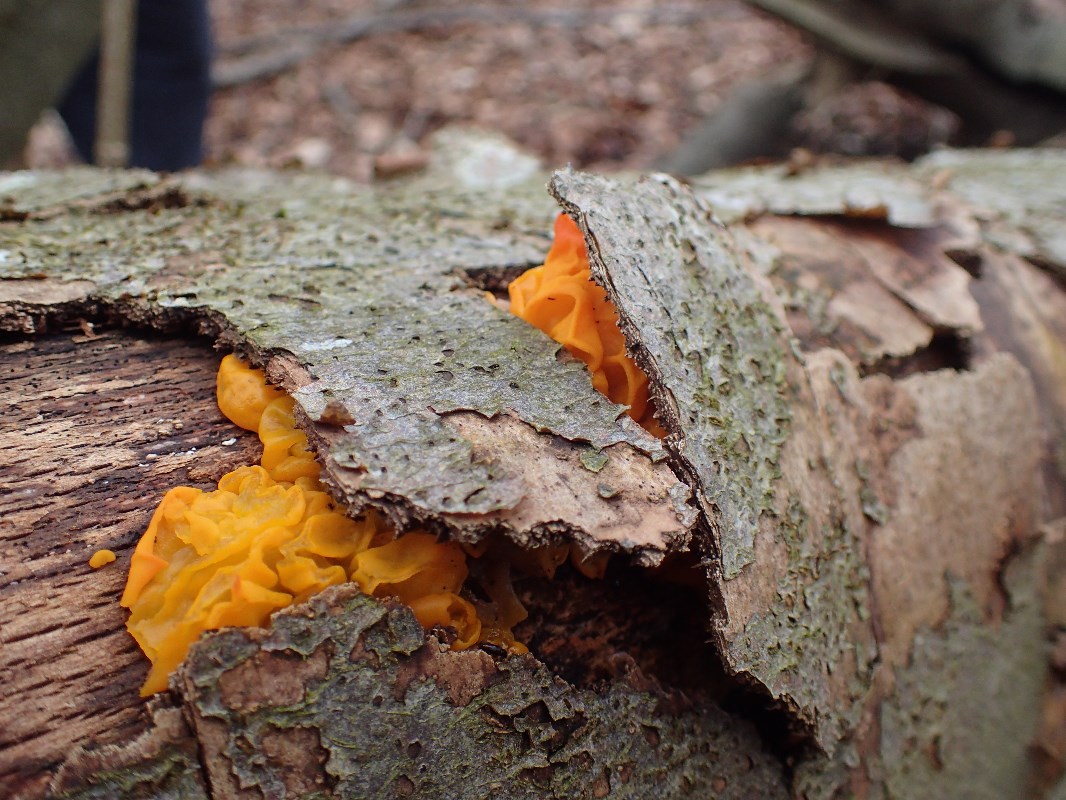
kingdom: Fungi
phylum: Basidiomycota
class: Tremellomycetes
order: Tremellales
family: Tremellaceae
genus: Tremella
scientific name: Tremella mesenterica
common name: gul bævresvamp
